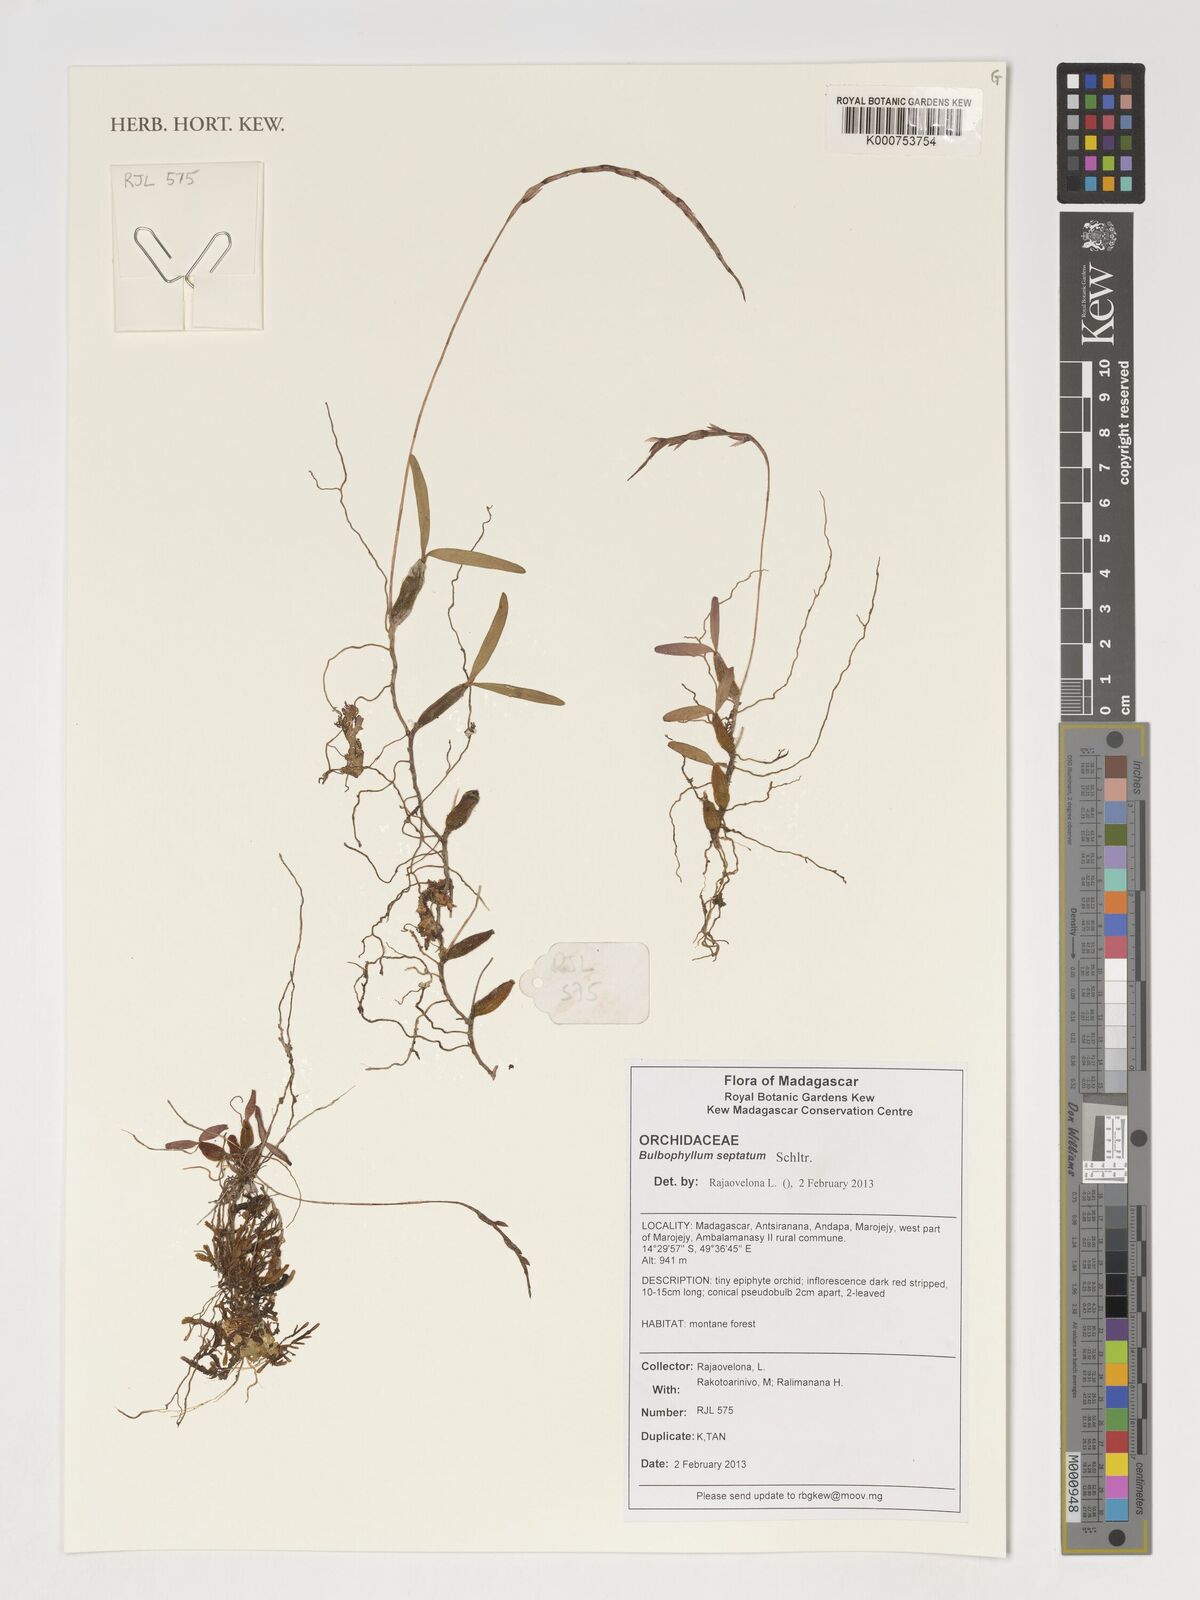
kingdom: Plantae
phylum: Tracheophyta
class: Liliopsida
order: Asparagales
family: Orchidaceae
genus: Bulbophyllum
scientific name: Bulbophyllum septatum
